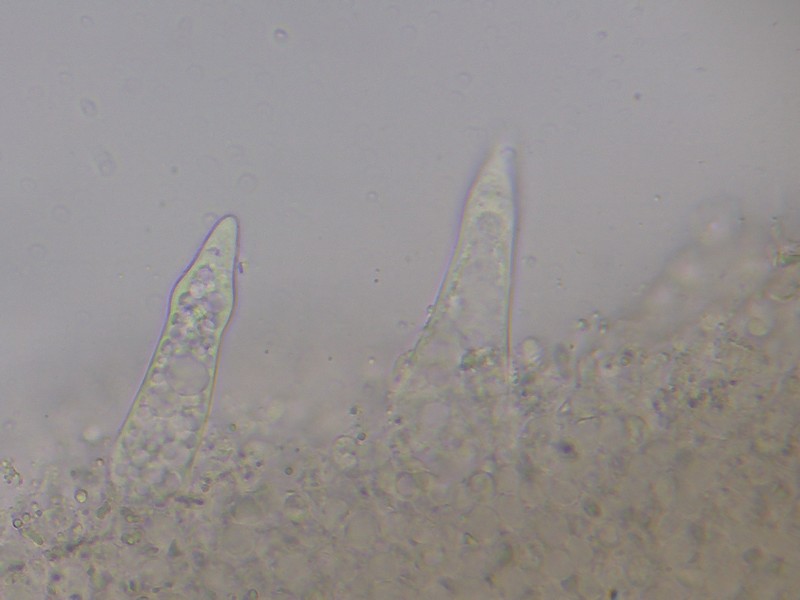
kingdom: Fungi
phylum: Basidiomycota
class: Agaricomycetes
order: Agaricales
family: Physalacriaceae
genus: Strobilurus
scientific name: Strobilurus tenacellus
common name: sommer-koglehat
